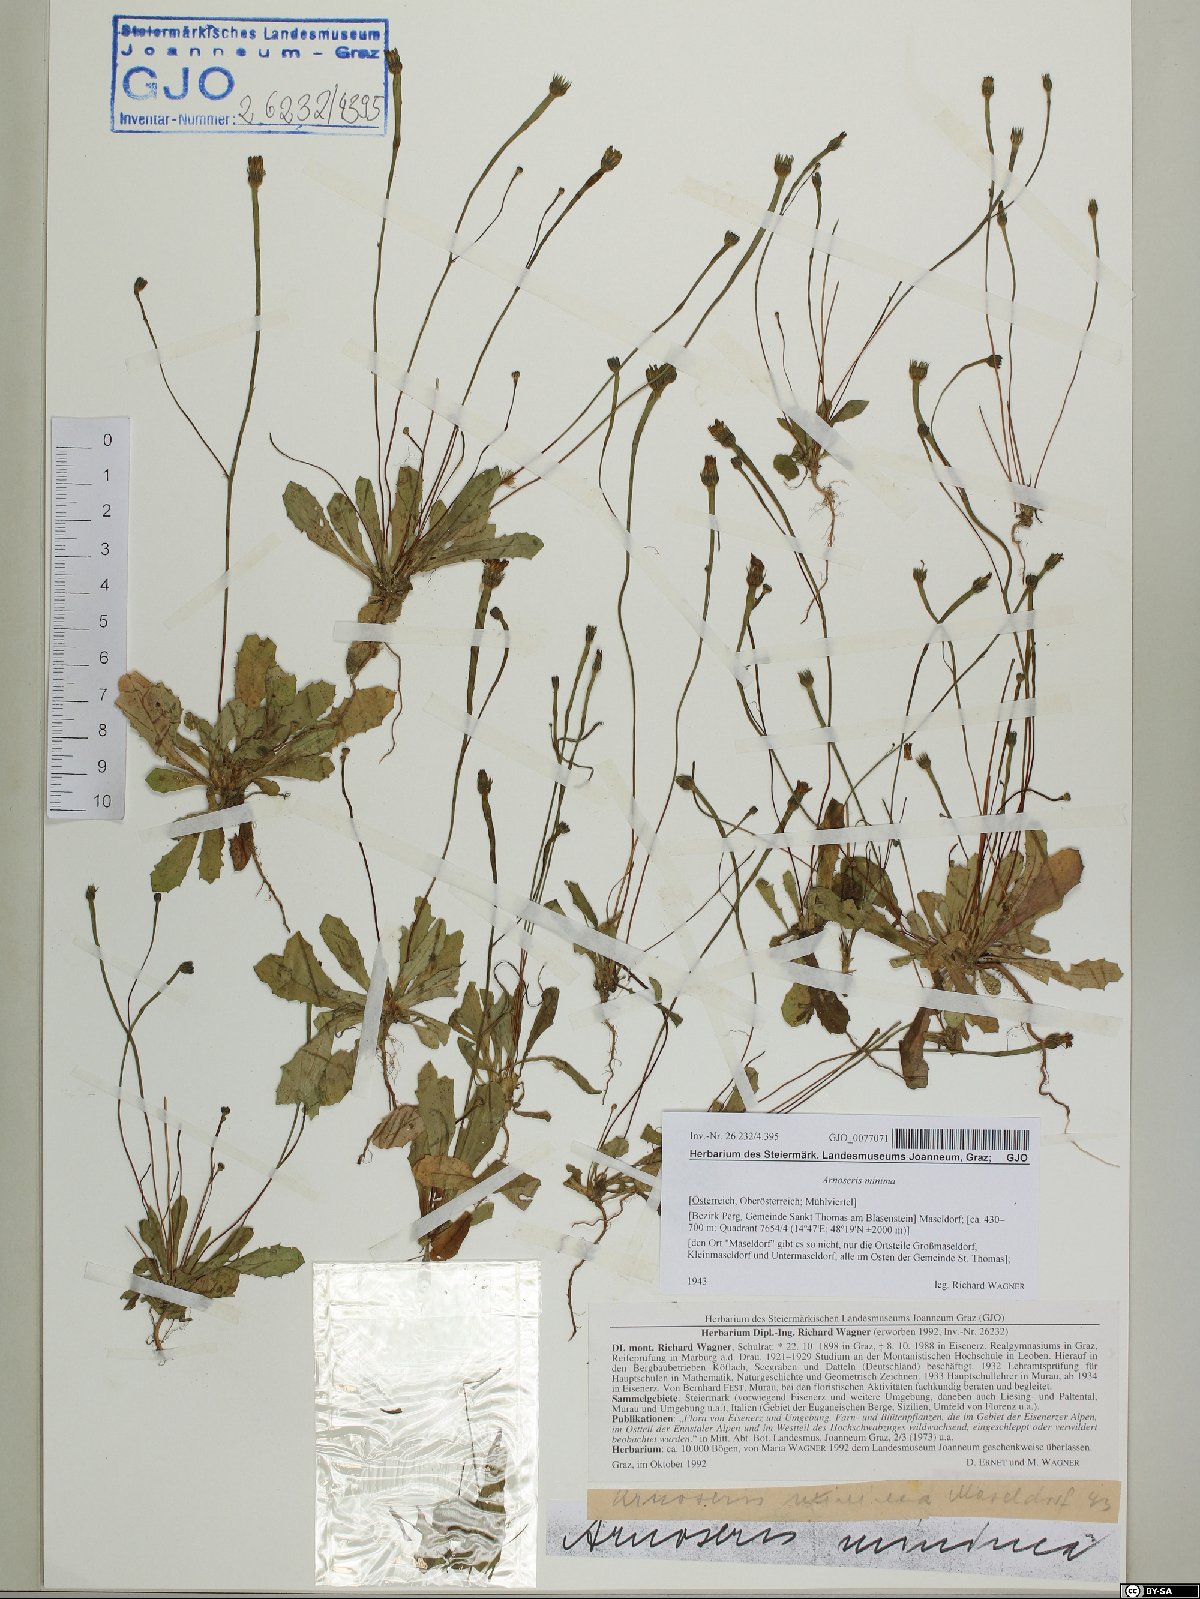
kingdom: Plantae
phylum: Tracheophyta
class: Magnoliopsida
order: Asterales
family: Asteraceae
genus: Arnoseris
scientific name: Arnoseris minima
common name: Lamb's succory
